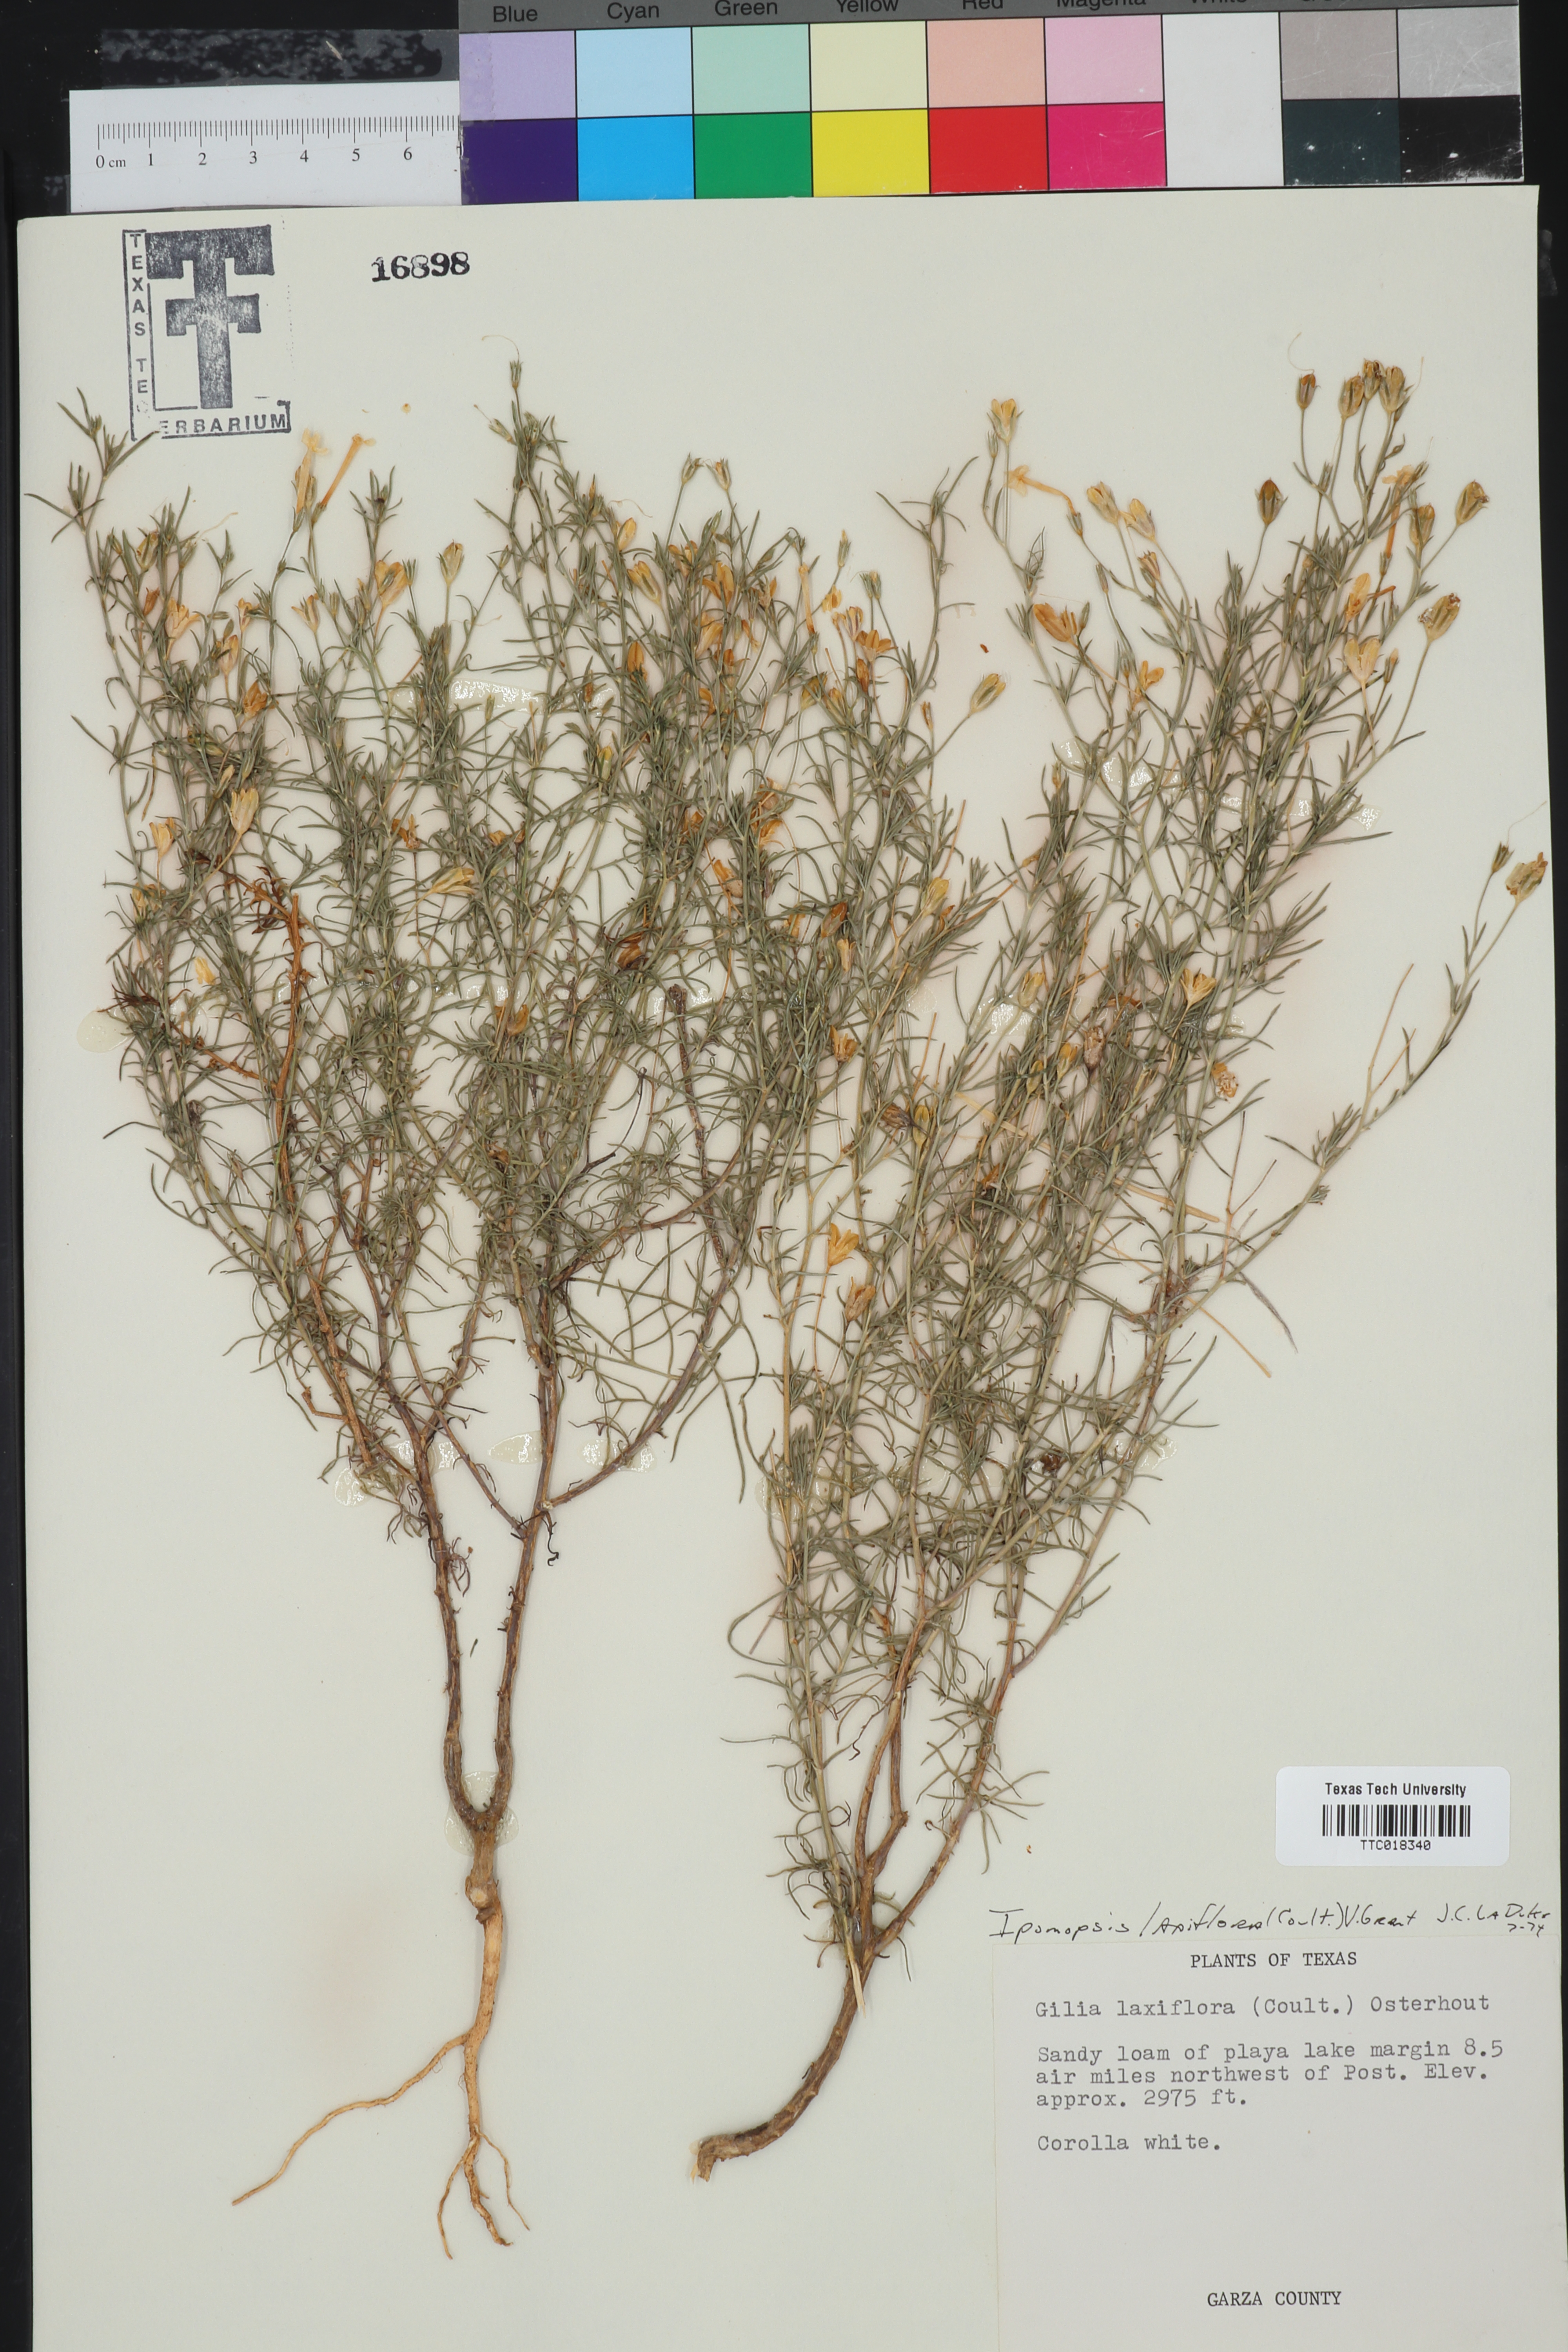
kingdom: Plantae
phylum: Tracheophyta
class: Magnoliopsida
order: Ericales
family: Polemoniaceae
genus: Ipomopsis
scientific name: Ipomopsis laxiflora
